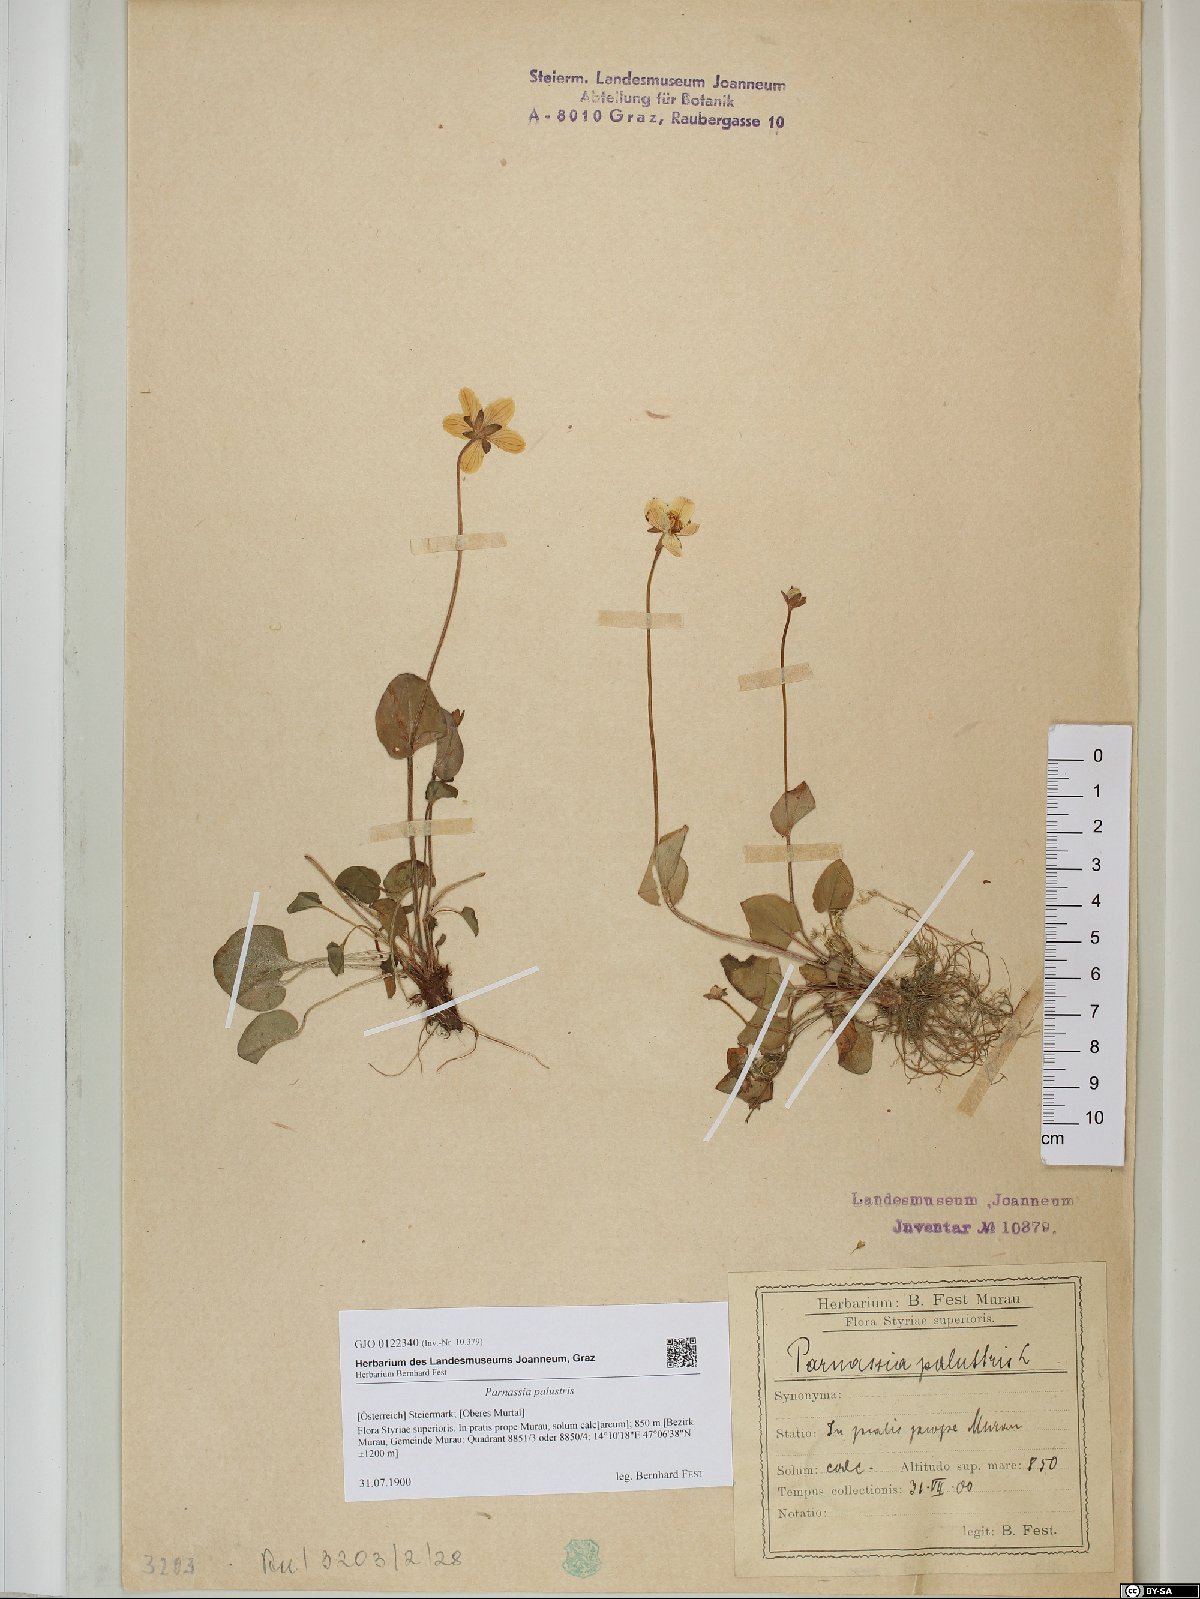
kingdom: Plantae
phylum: Tracheophyta
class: Magnoliopsida
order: Celastrales
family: Parnassiaceae
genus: Parnassia
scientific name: Parnassia palustris
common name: Grass-of-parnassus
